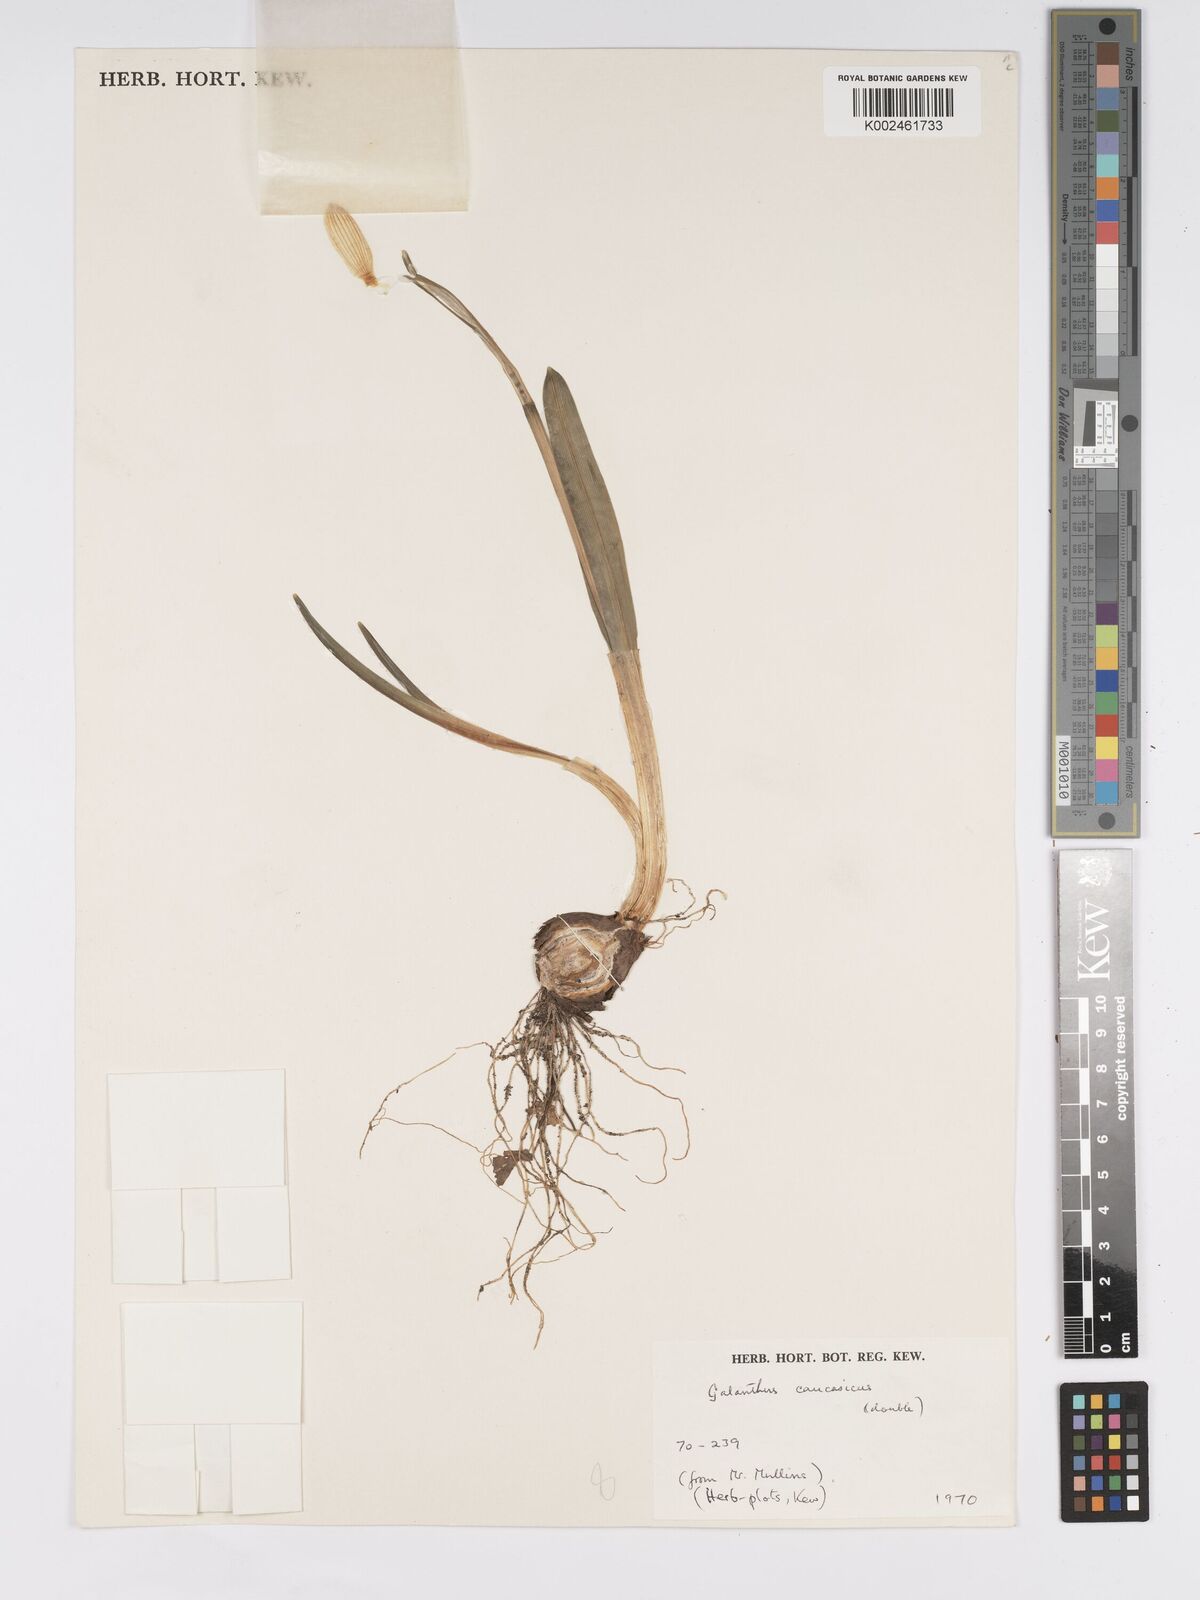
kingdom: Plantae
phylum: Tracheophyta
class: Liliopsida
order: Asparagales
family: Amaryllidaceae
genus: Galanthus
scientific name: Galanthus alpinus
